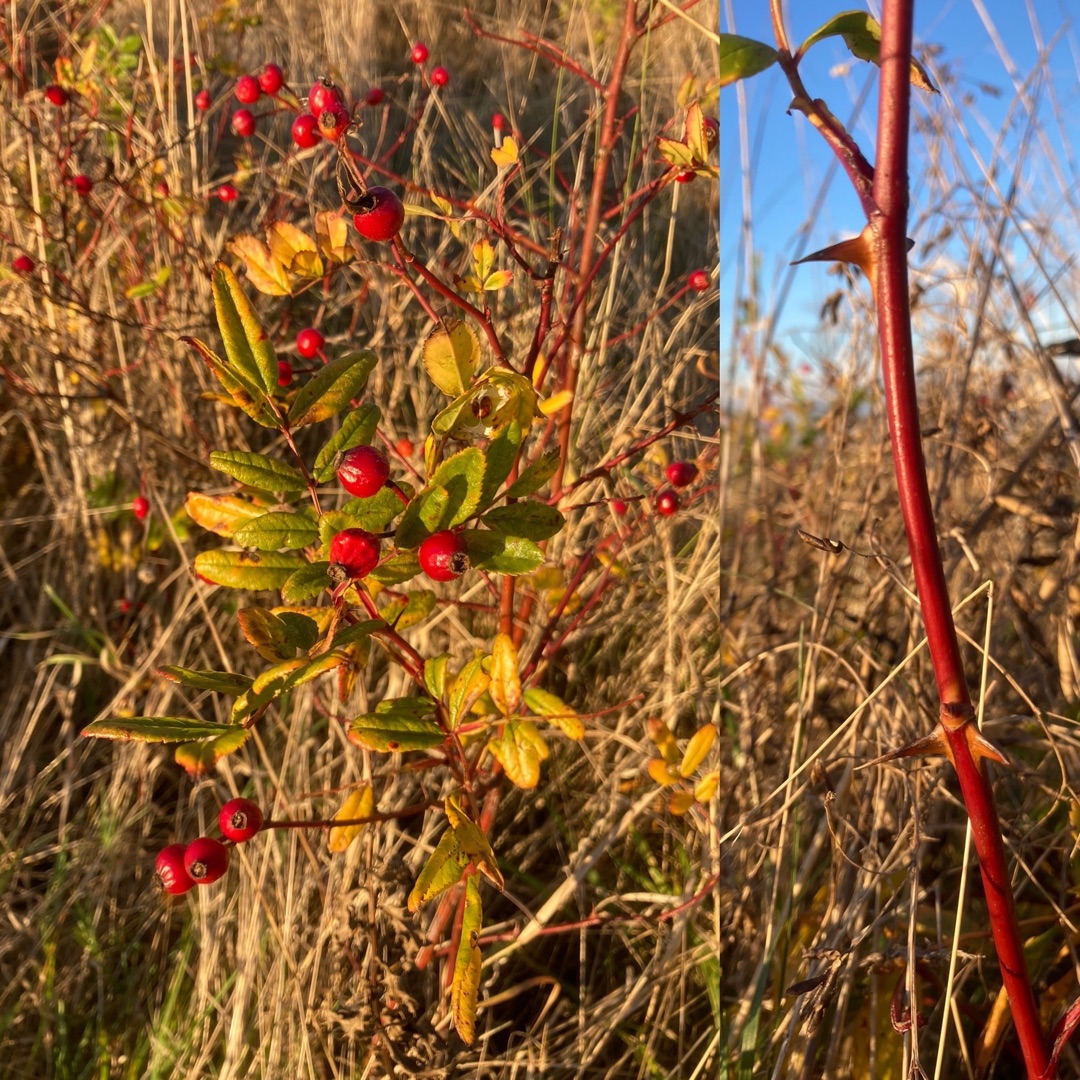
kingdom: Plantae
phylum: Tracheophyta
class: Magnoliopsida
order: Rosales
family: Rosaceae
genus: Rosa
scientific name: Rosa carolina
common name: Glansbladet rose
